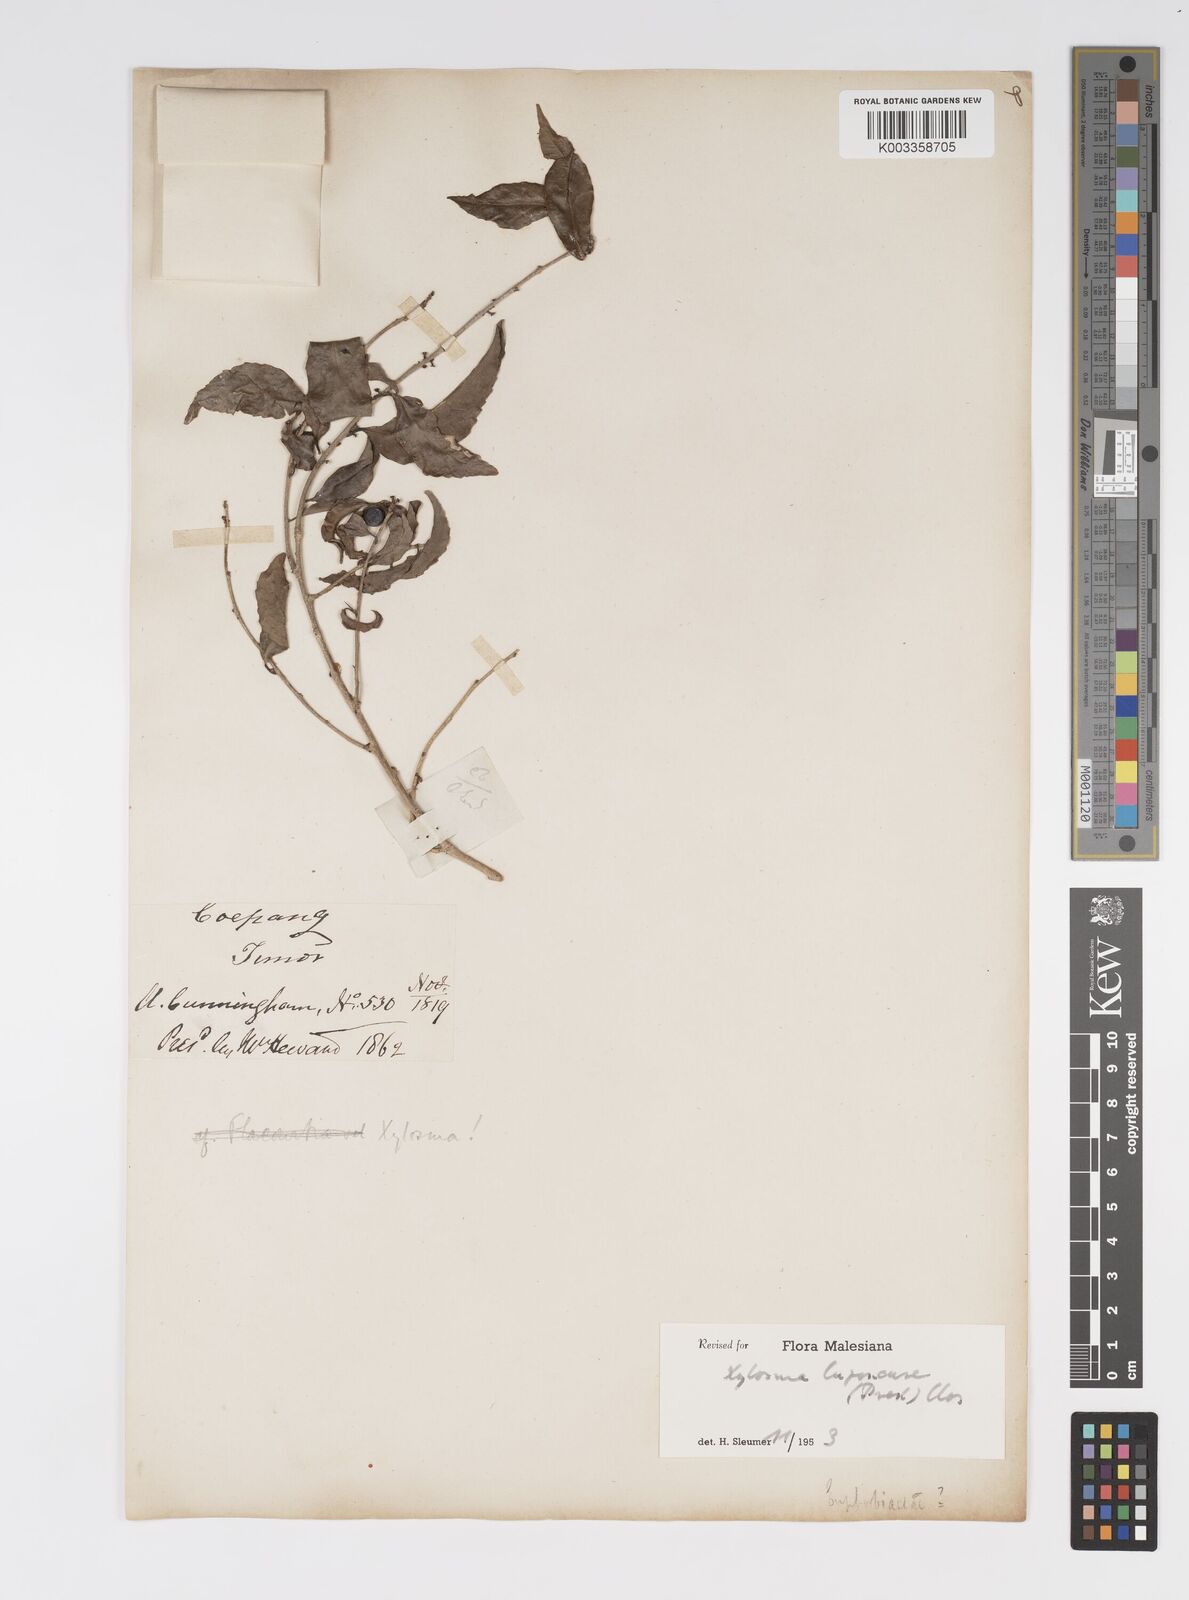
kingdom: Plantae
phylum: Tracheophyta
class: Magnoliopsida
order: Malpighiales
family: Salicaceae
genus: Xylosma
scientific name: Xylosma luzonensis
